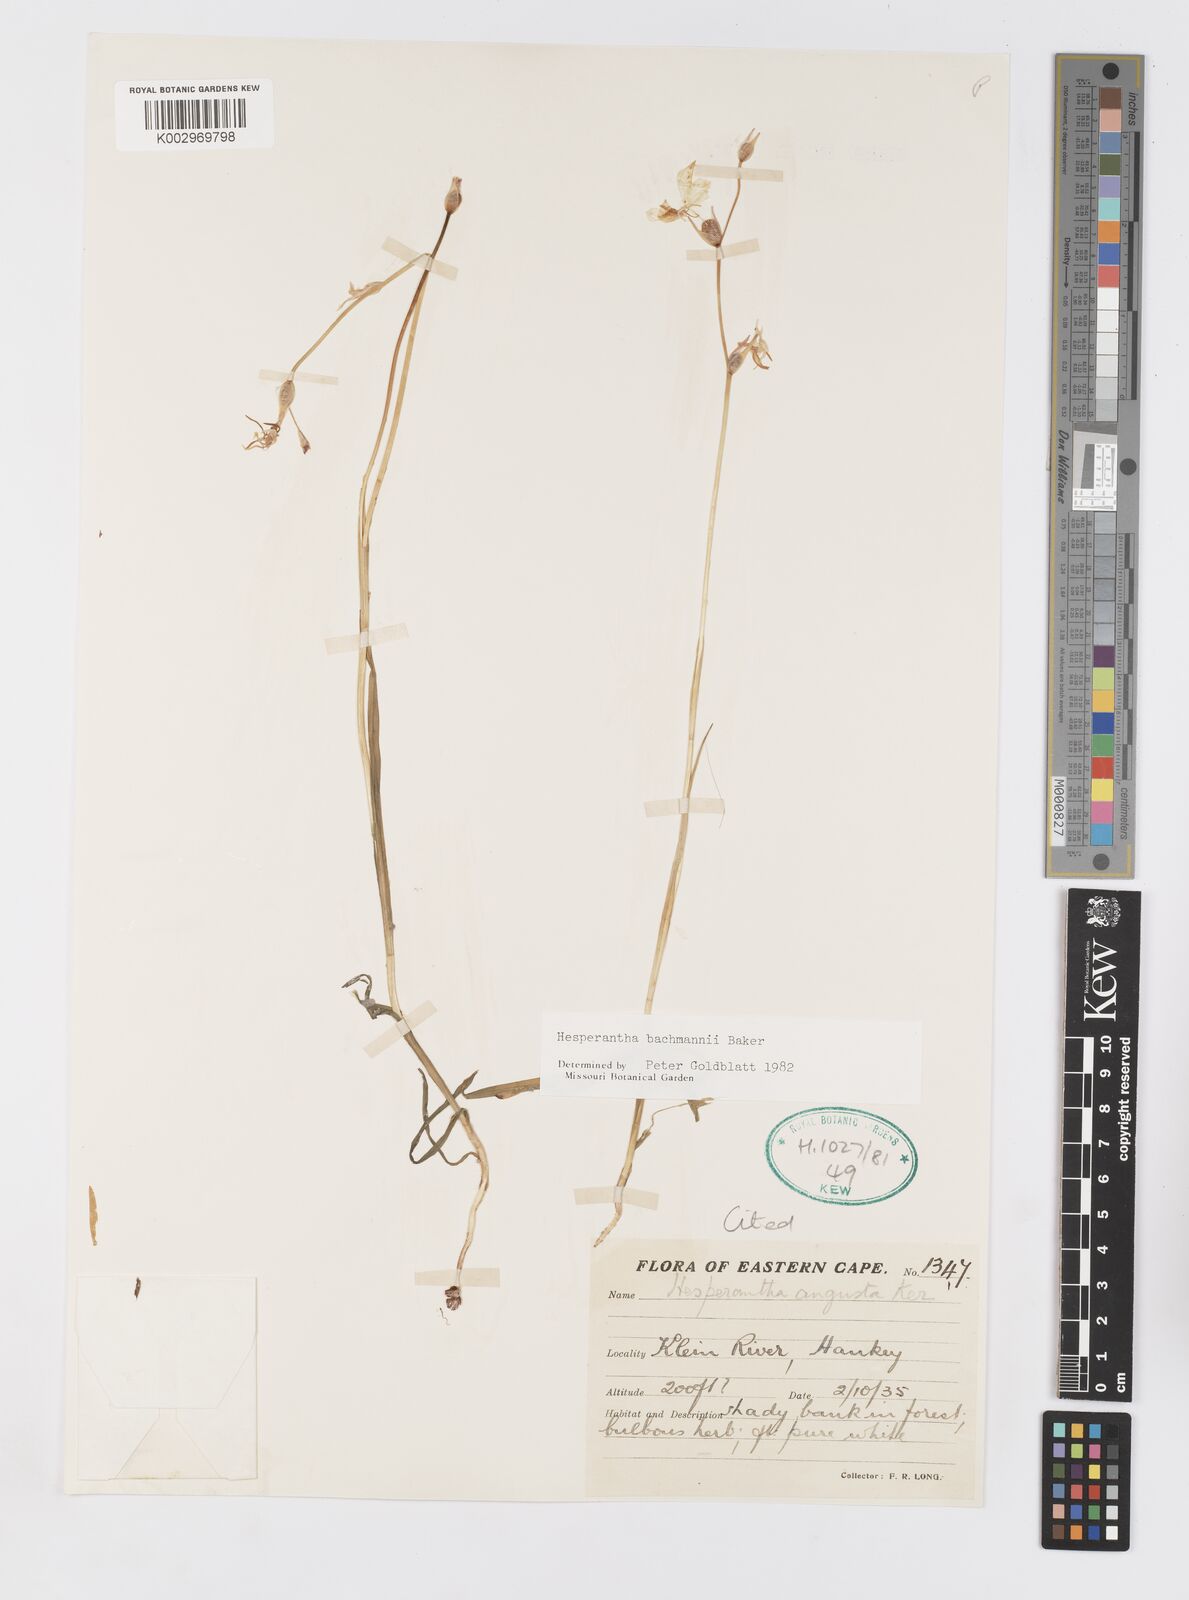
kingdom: Plantae
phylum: Tracheophyta
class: Liliopsida
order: Asparagales
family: Iridaceae
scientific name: Iridaceae
